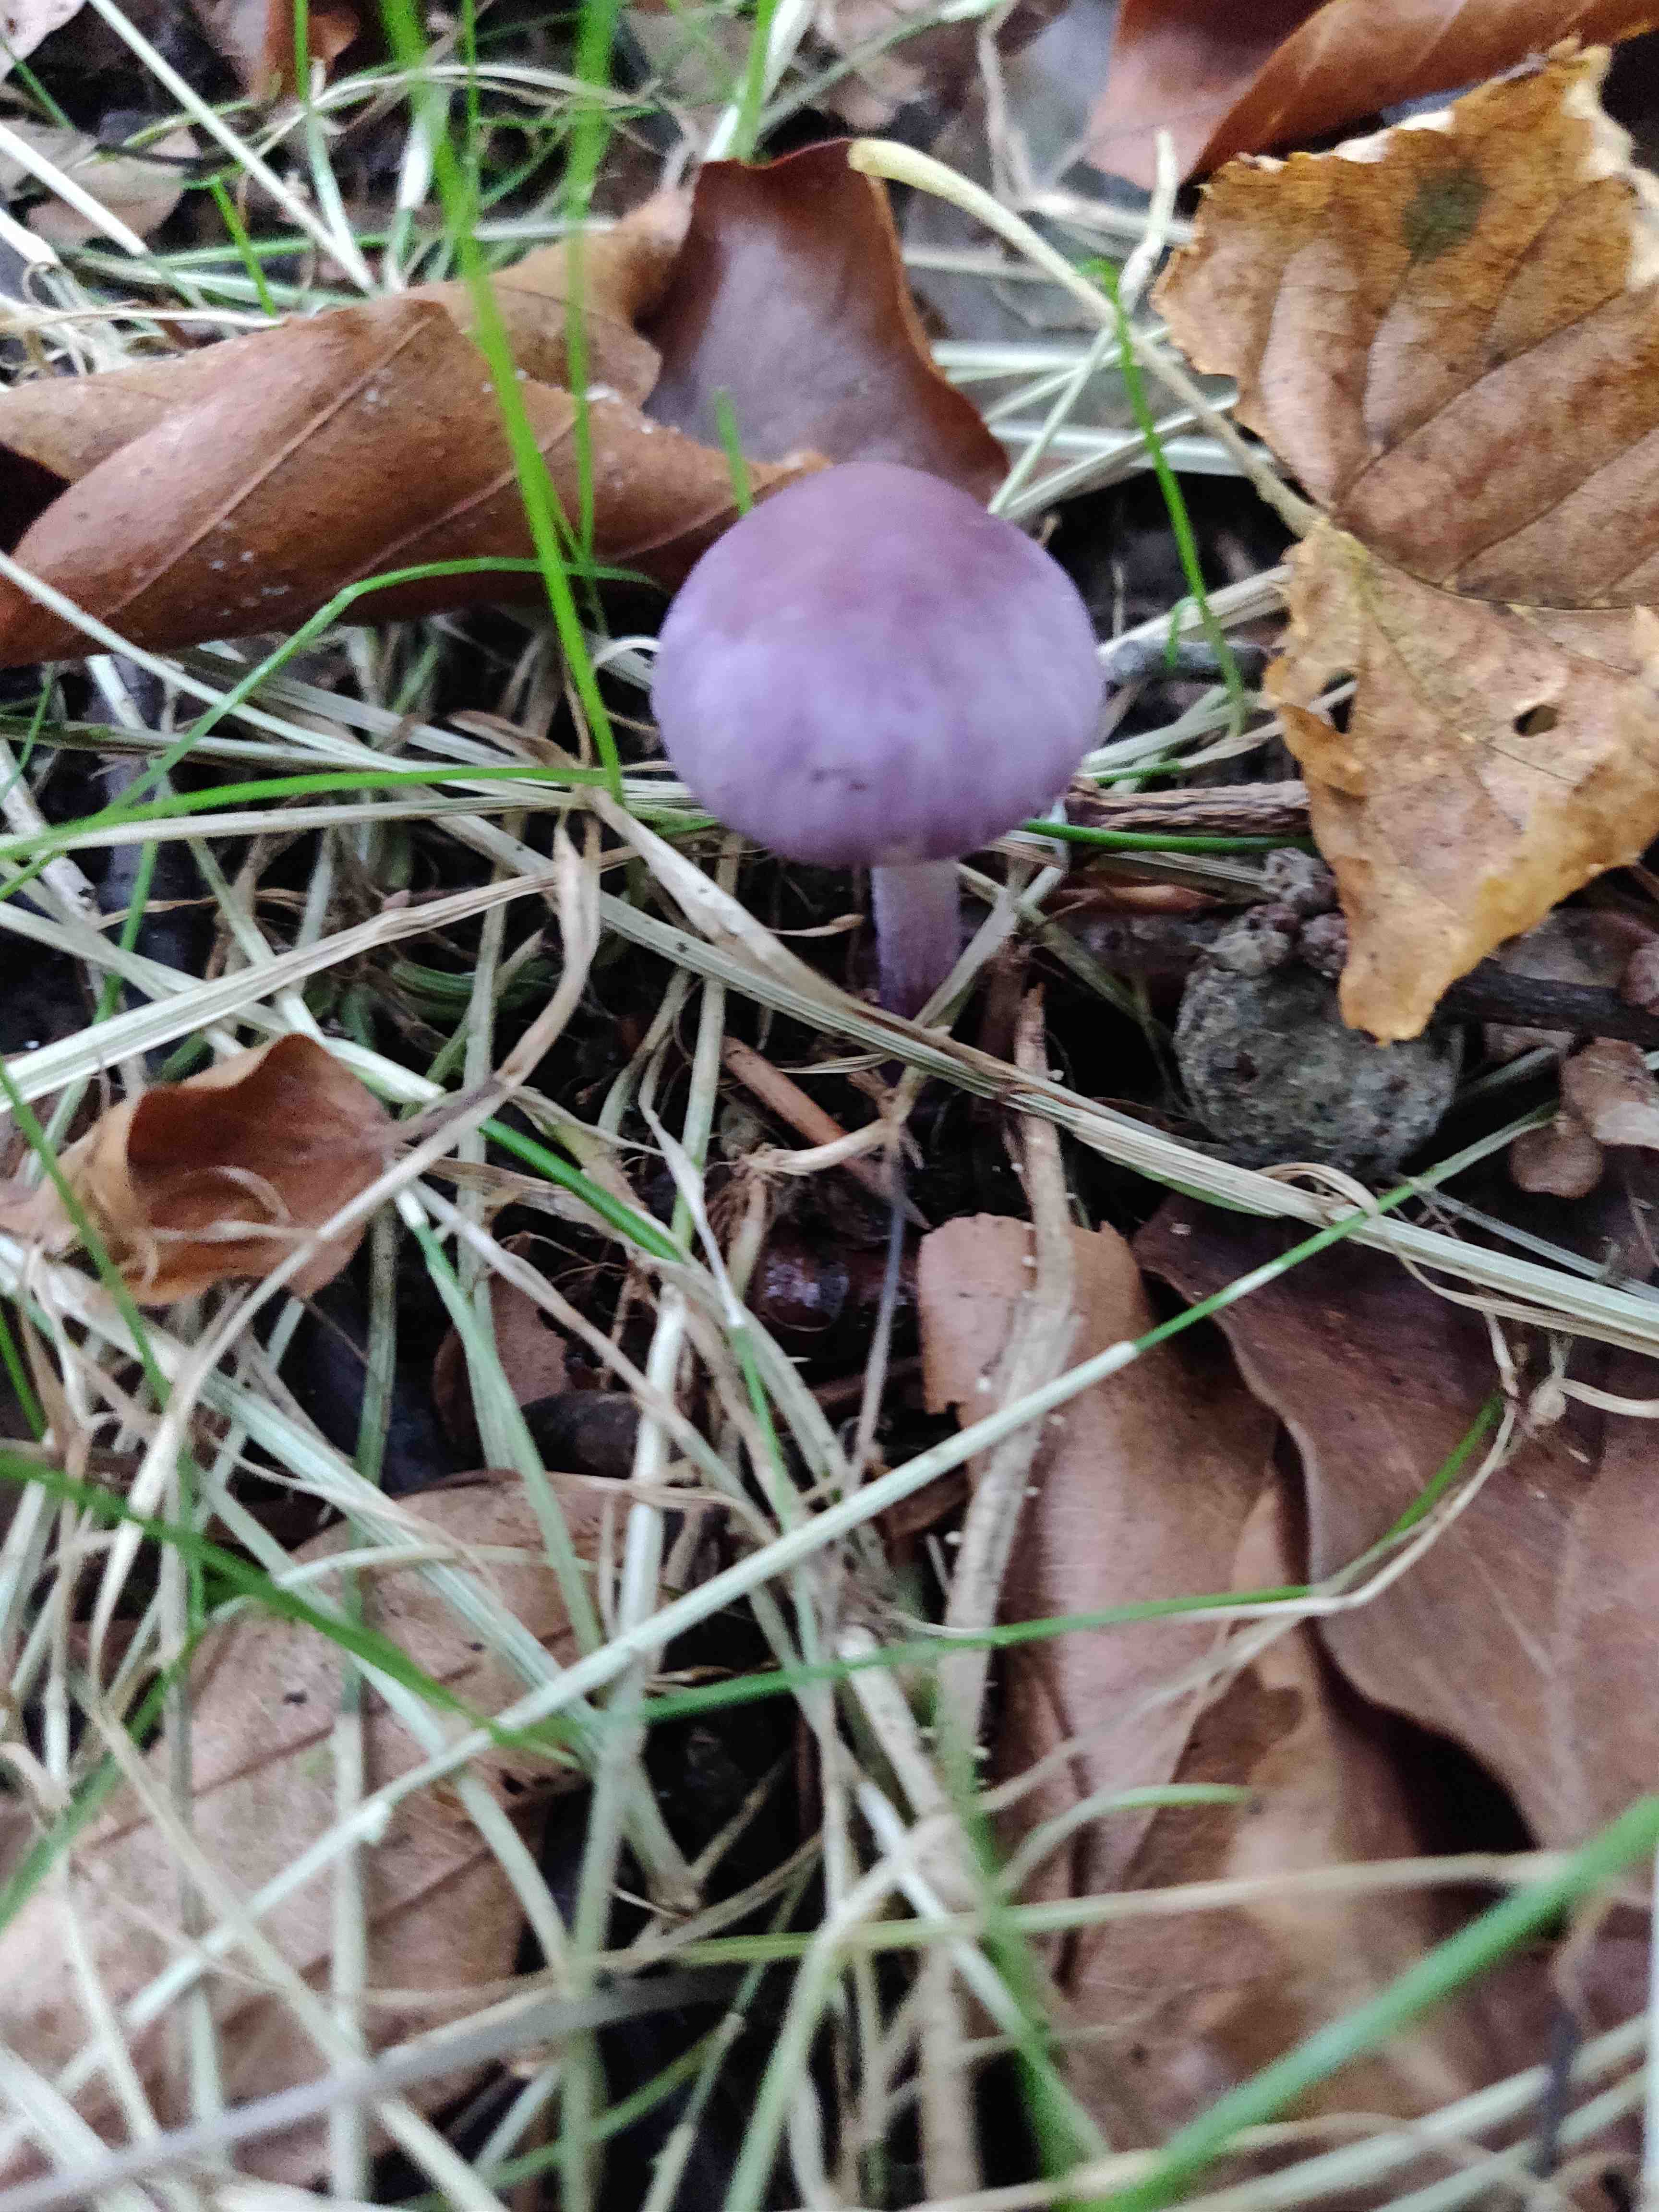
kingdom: Fungi
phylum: Basidiomycota
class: Agaricomycetes
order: Agaricales
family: Hydnangiaceae
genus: Laccaria
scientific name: Laccaria amethystina
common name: violet ametysthat
